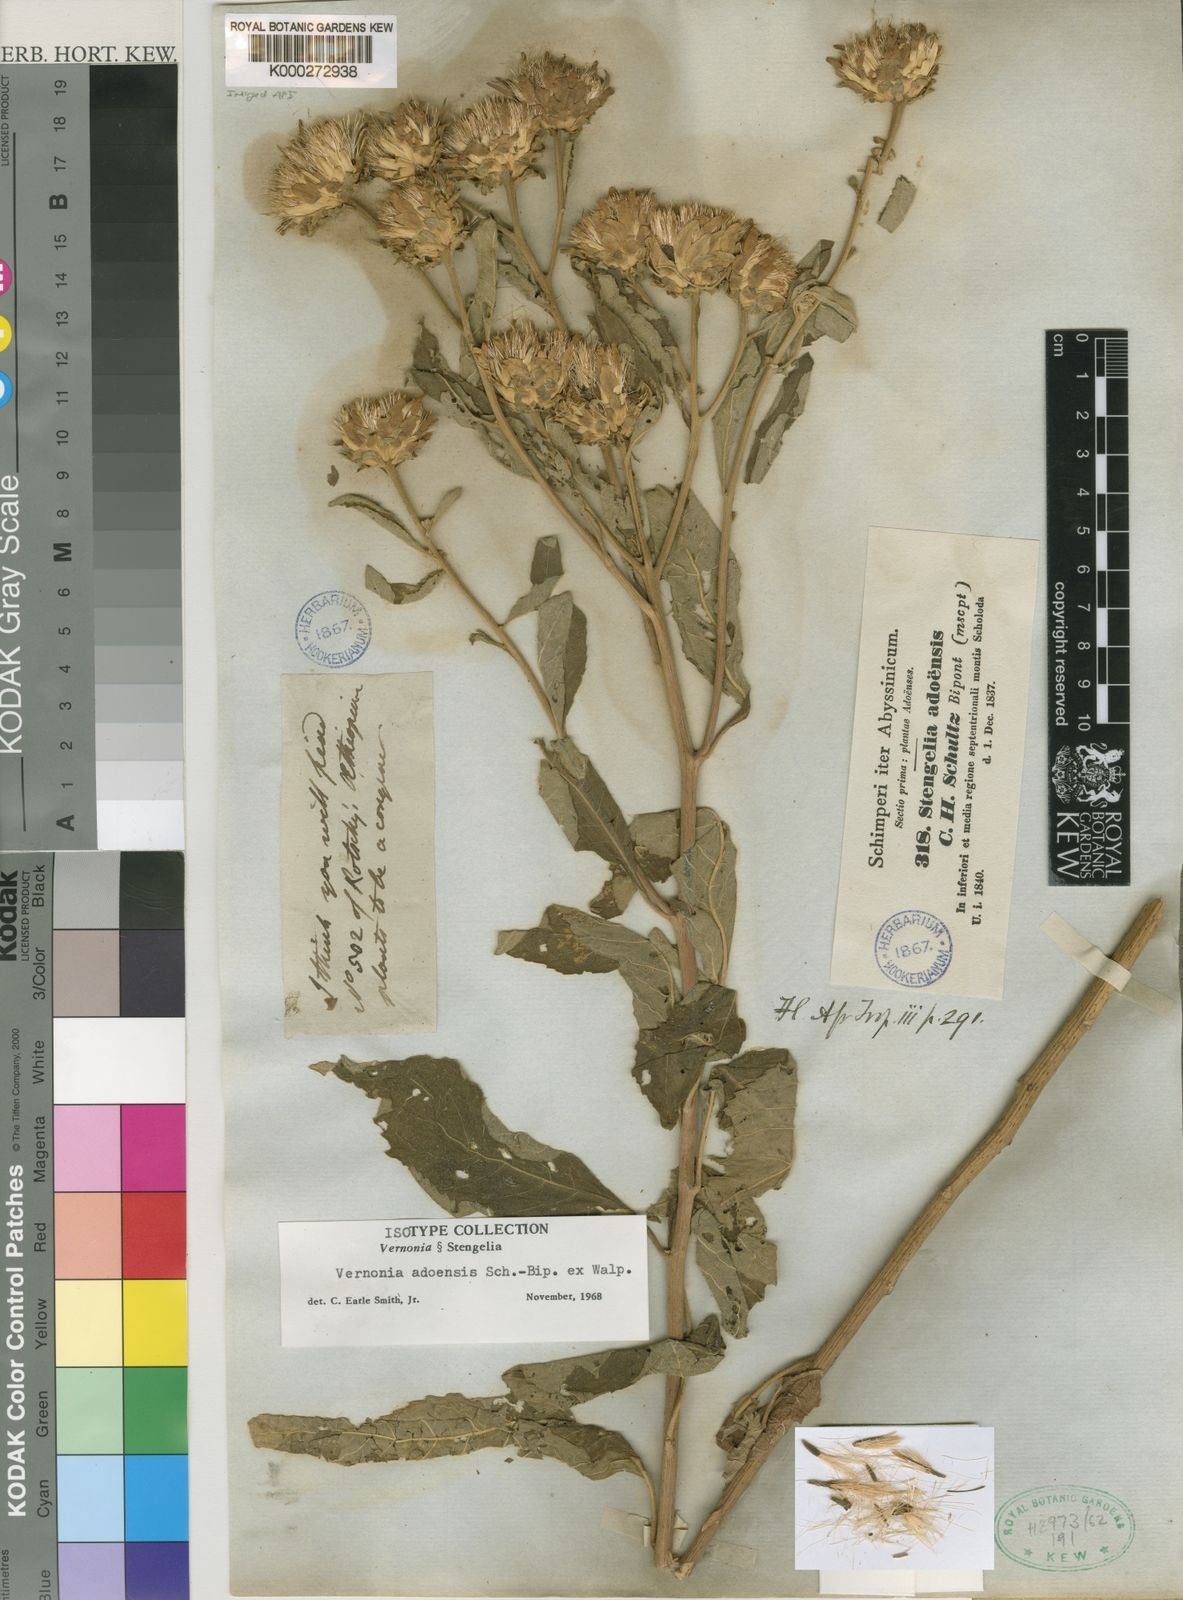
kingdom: Plantae
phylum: Tracheophyta
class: Magnoliopsida
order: Asterales
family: Asteraceae
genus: Baccharoides
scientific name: Baccharoides adoensis
